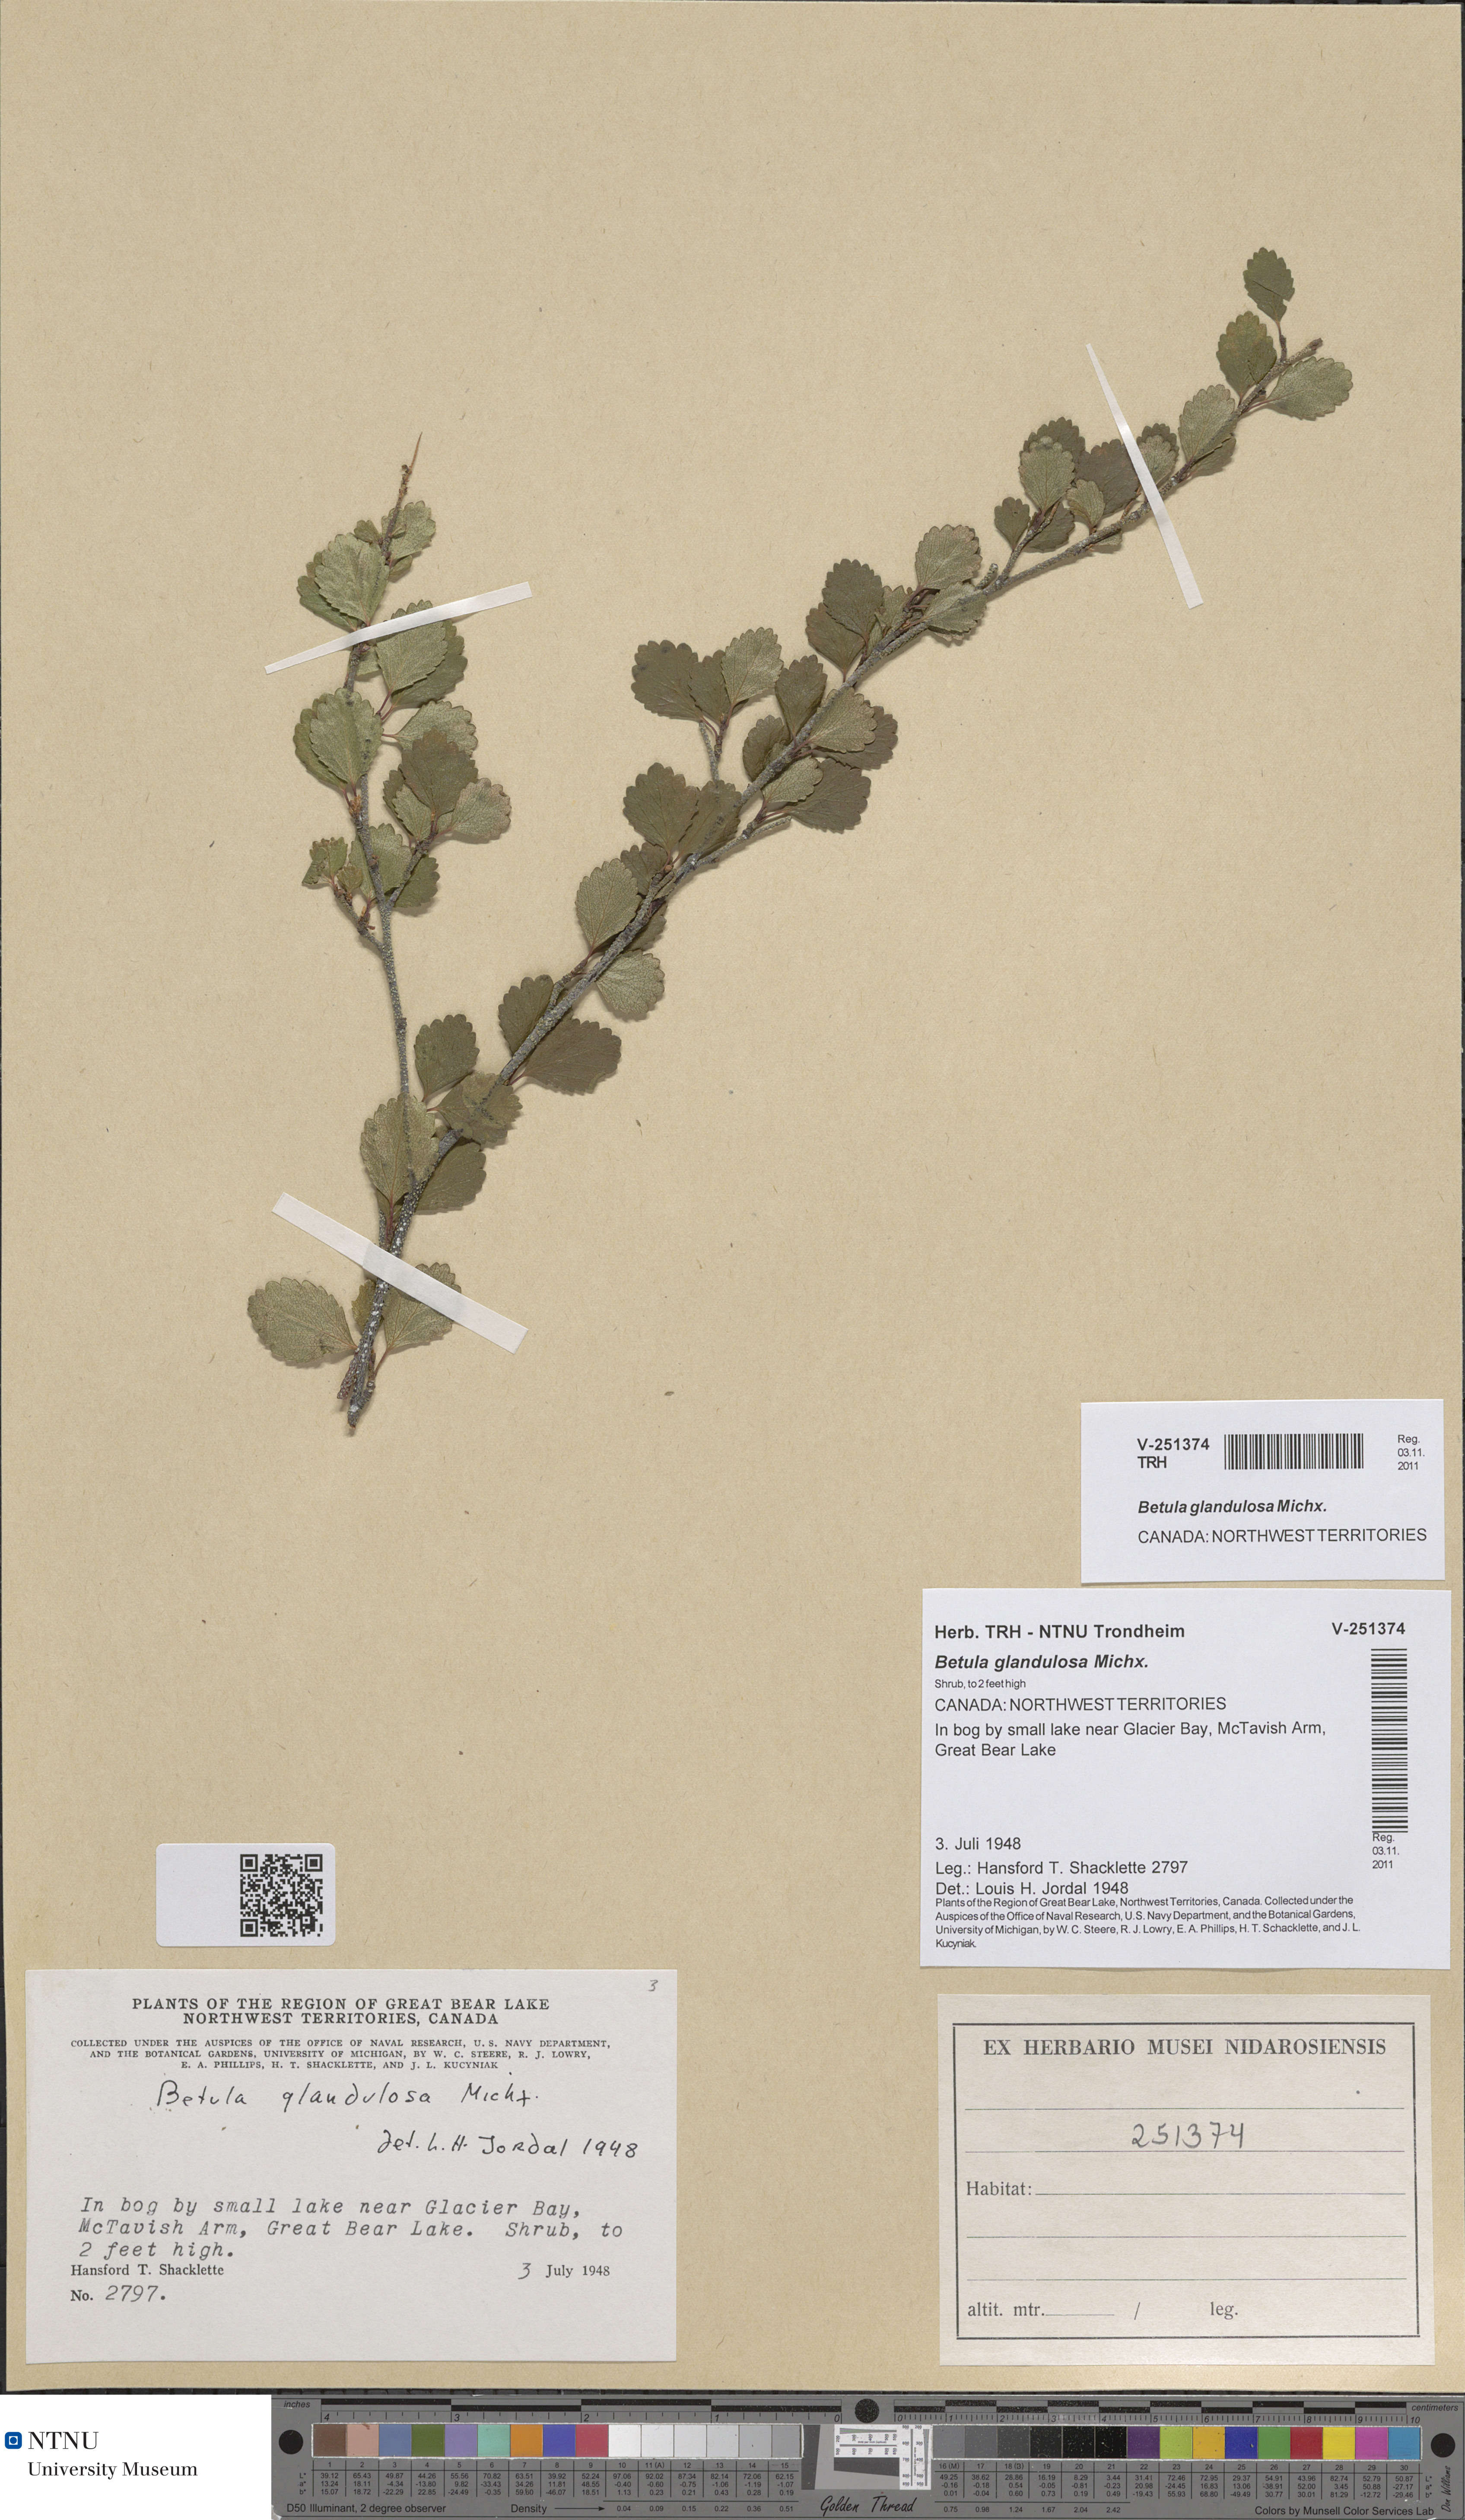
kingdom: Plantae
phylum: Tracheophyta
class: Magnoliopsida
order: Fagales
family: Betulaceae
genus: Betula
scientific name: Betula glandulosa
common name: Dwarf birch
